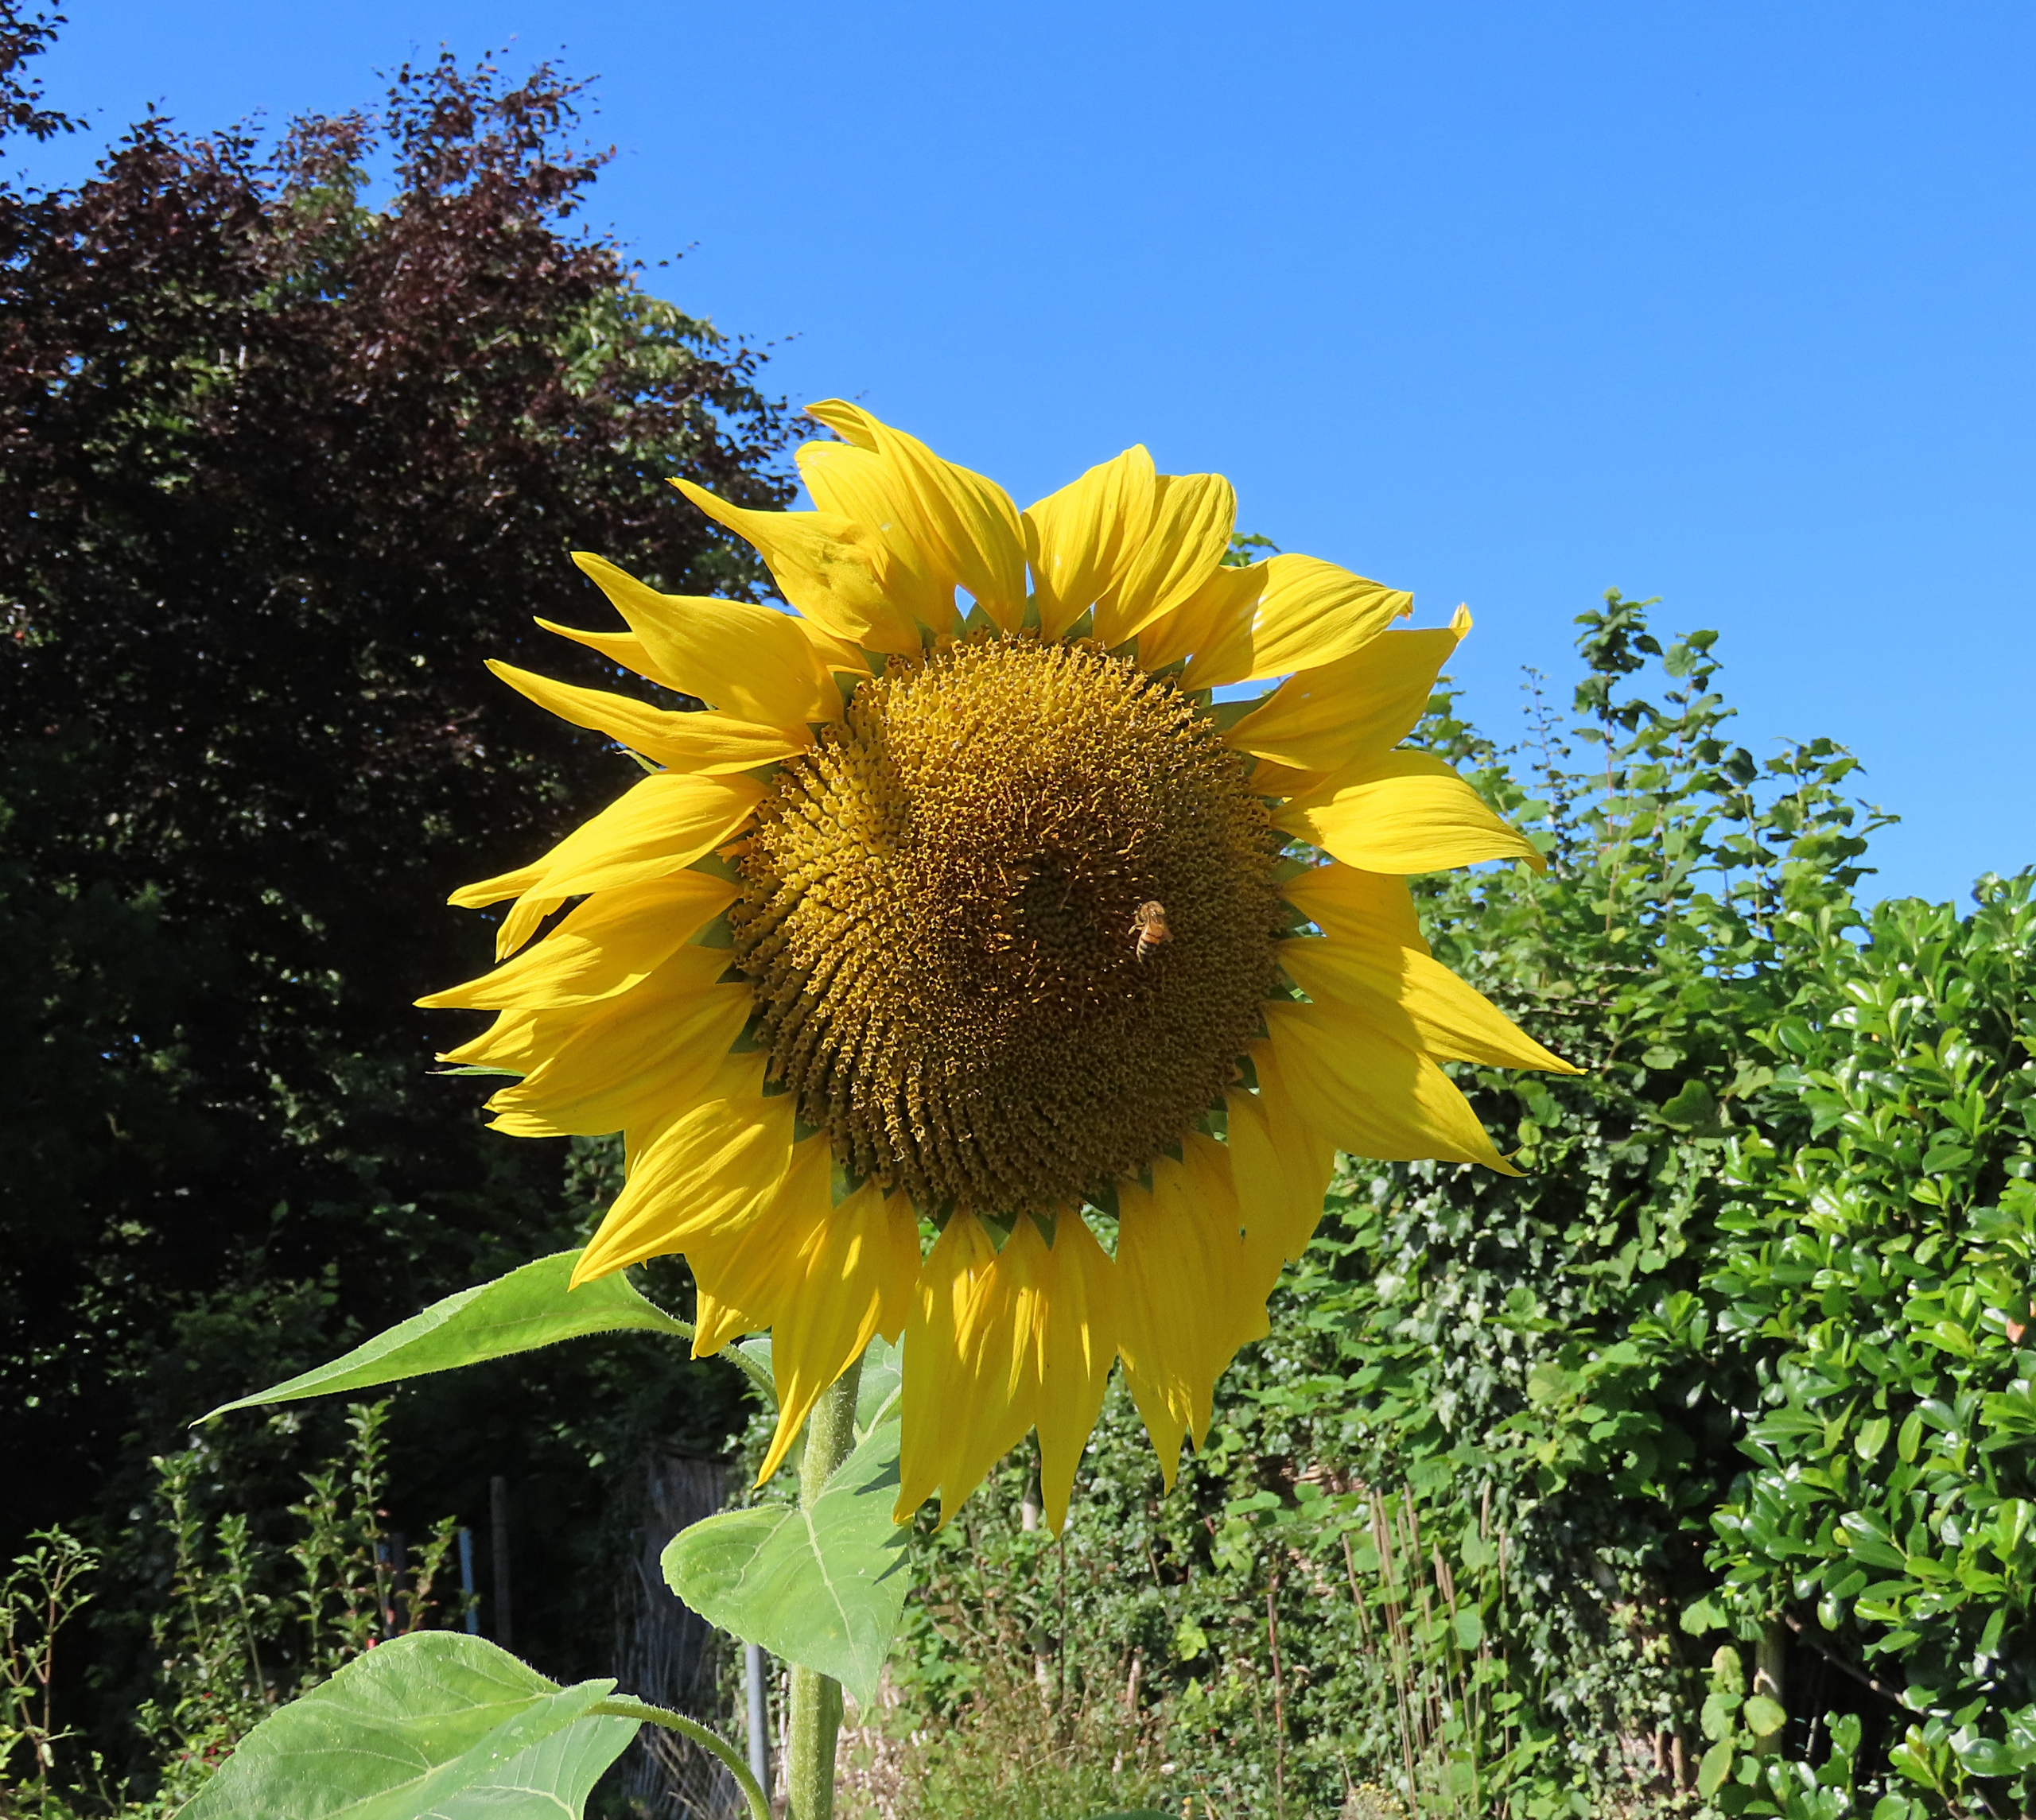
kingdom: Plantae
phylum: Tracheophyta
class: Magnoliopsida
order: Asterales
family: Asteraceae
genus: Helianthus
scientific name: Helianthus annuus
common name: Solsikke
